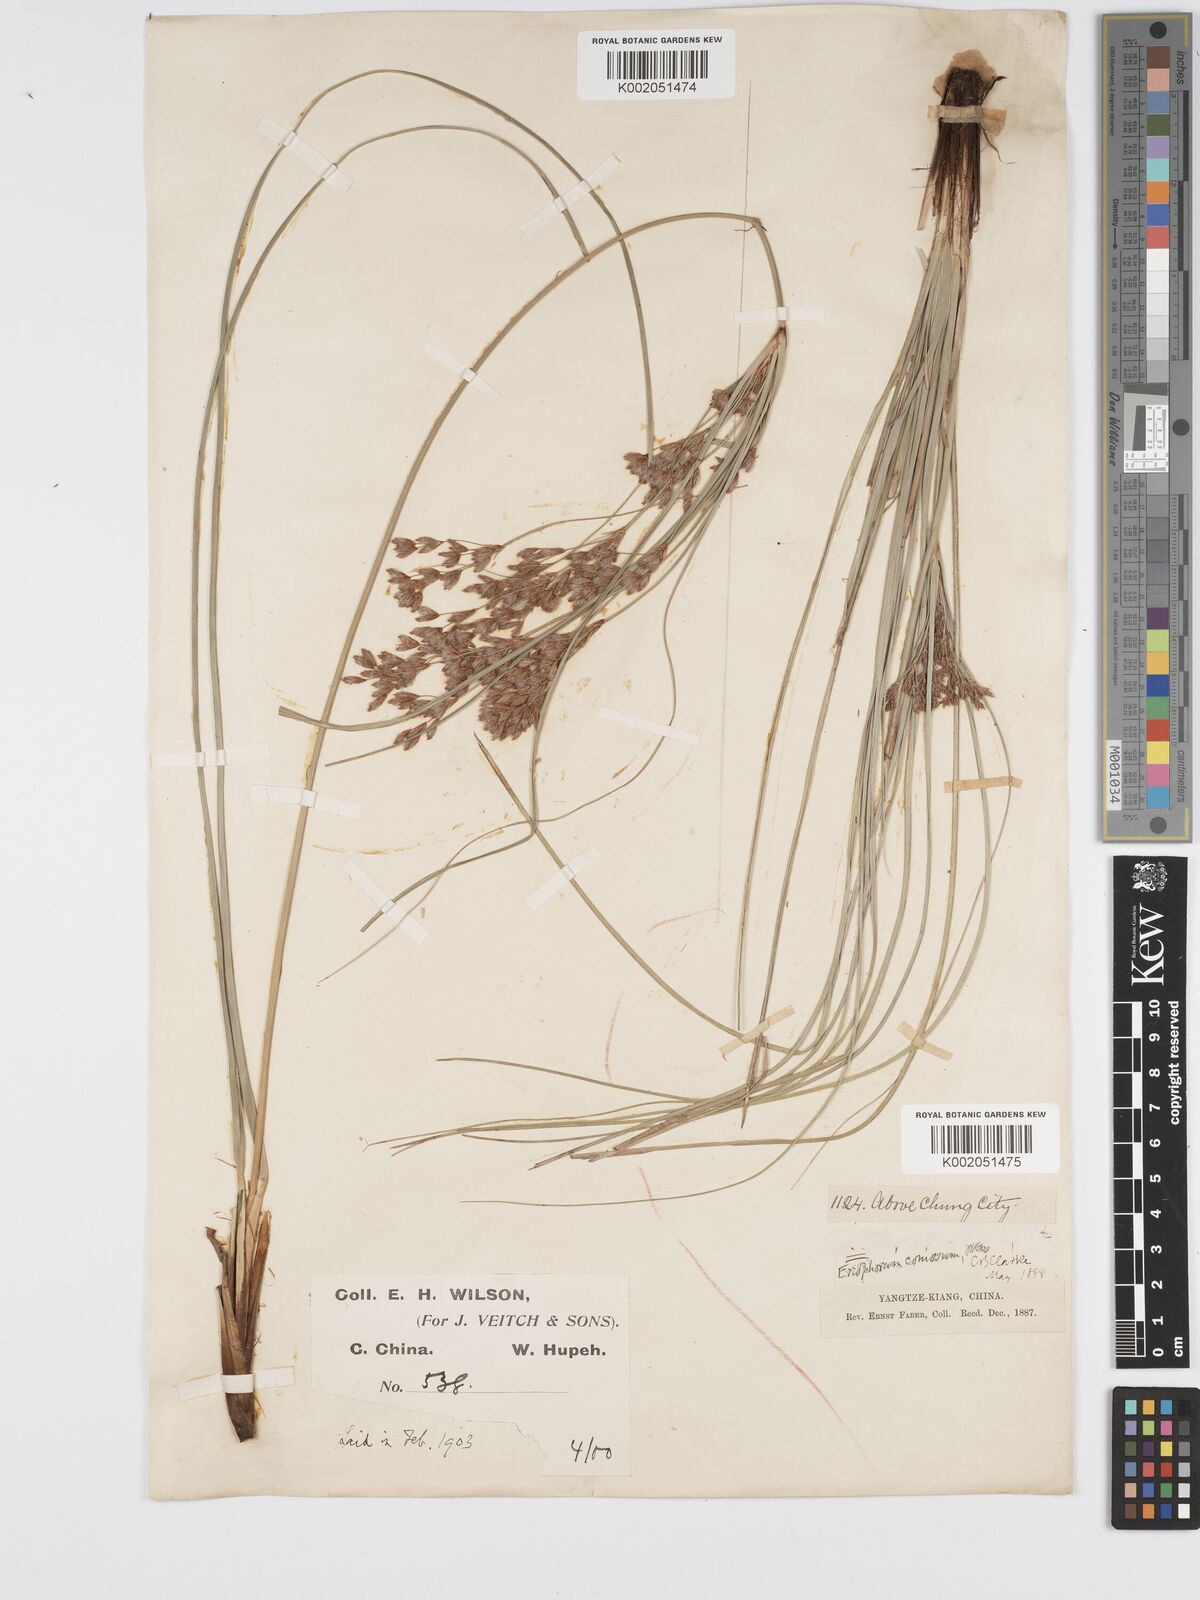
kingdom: Plantae
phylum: Tracheophyta
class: Liliopsida
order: Poales
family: Cyperaceae
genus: Erioscirpus
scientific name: Erioscirpus comosus
